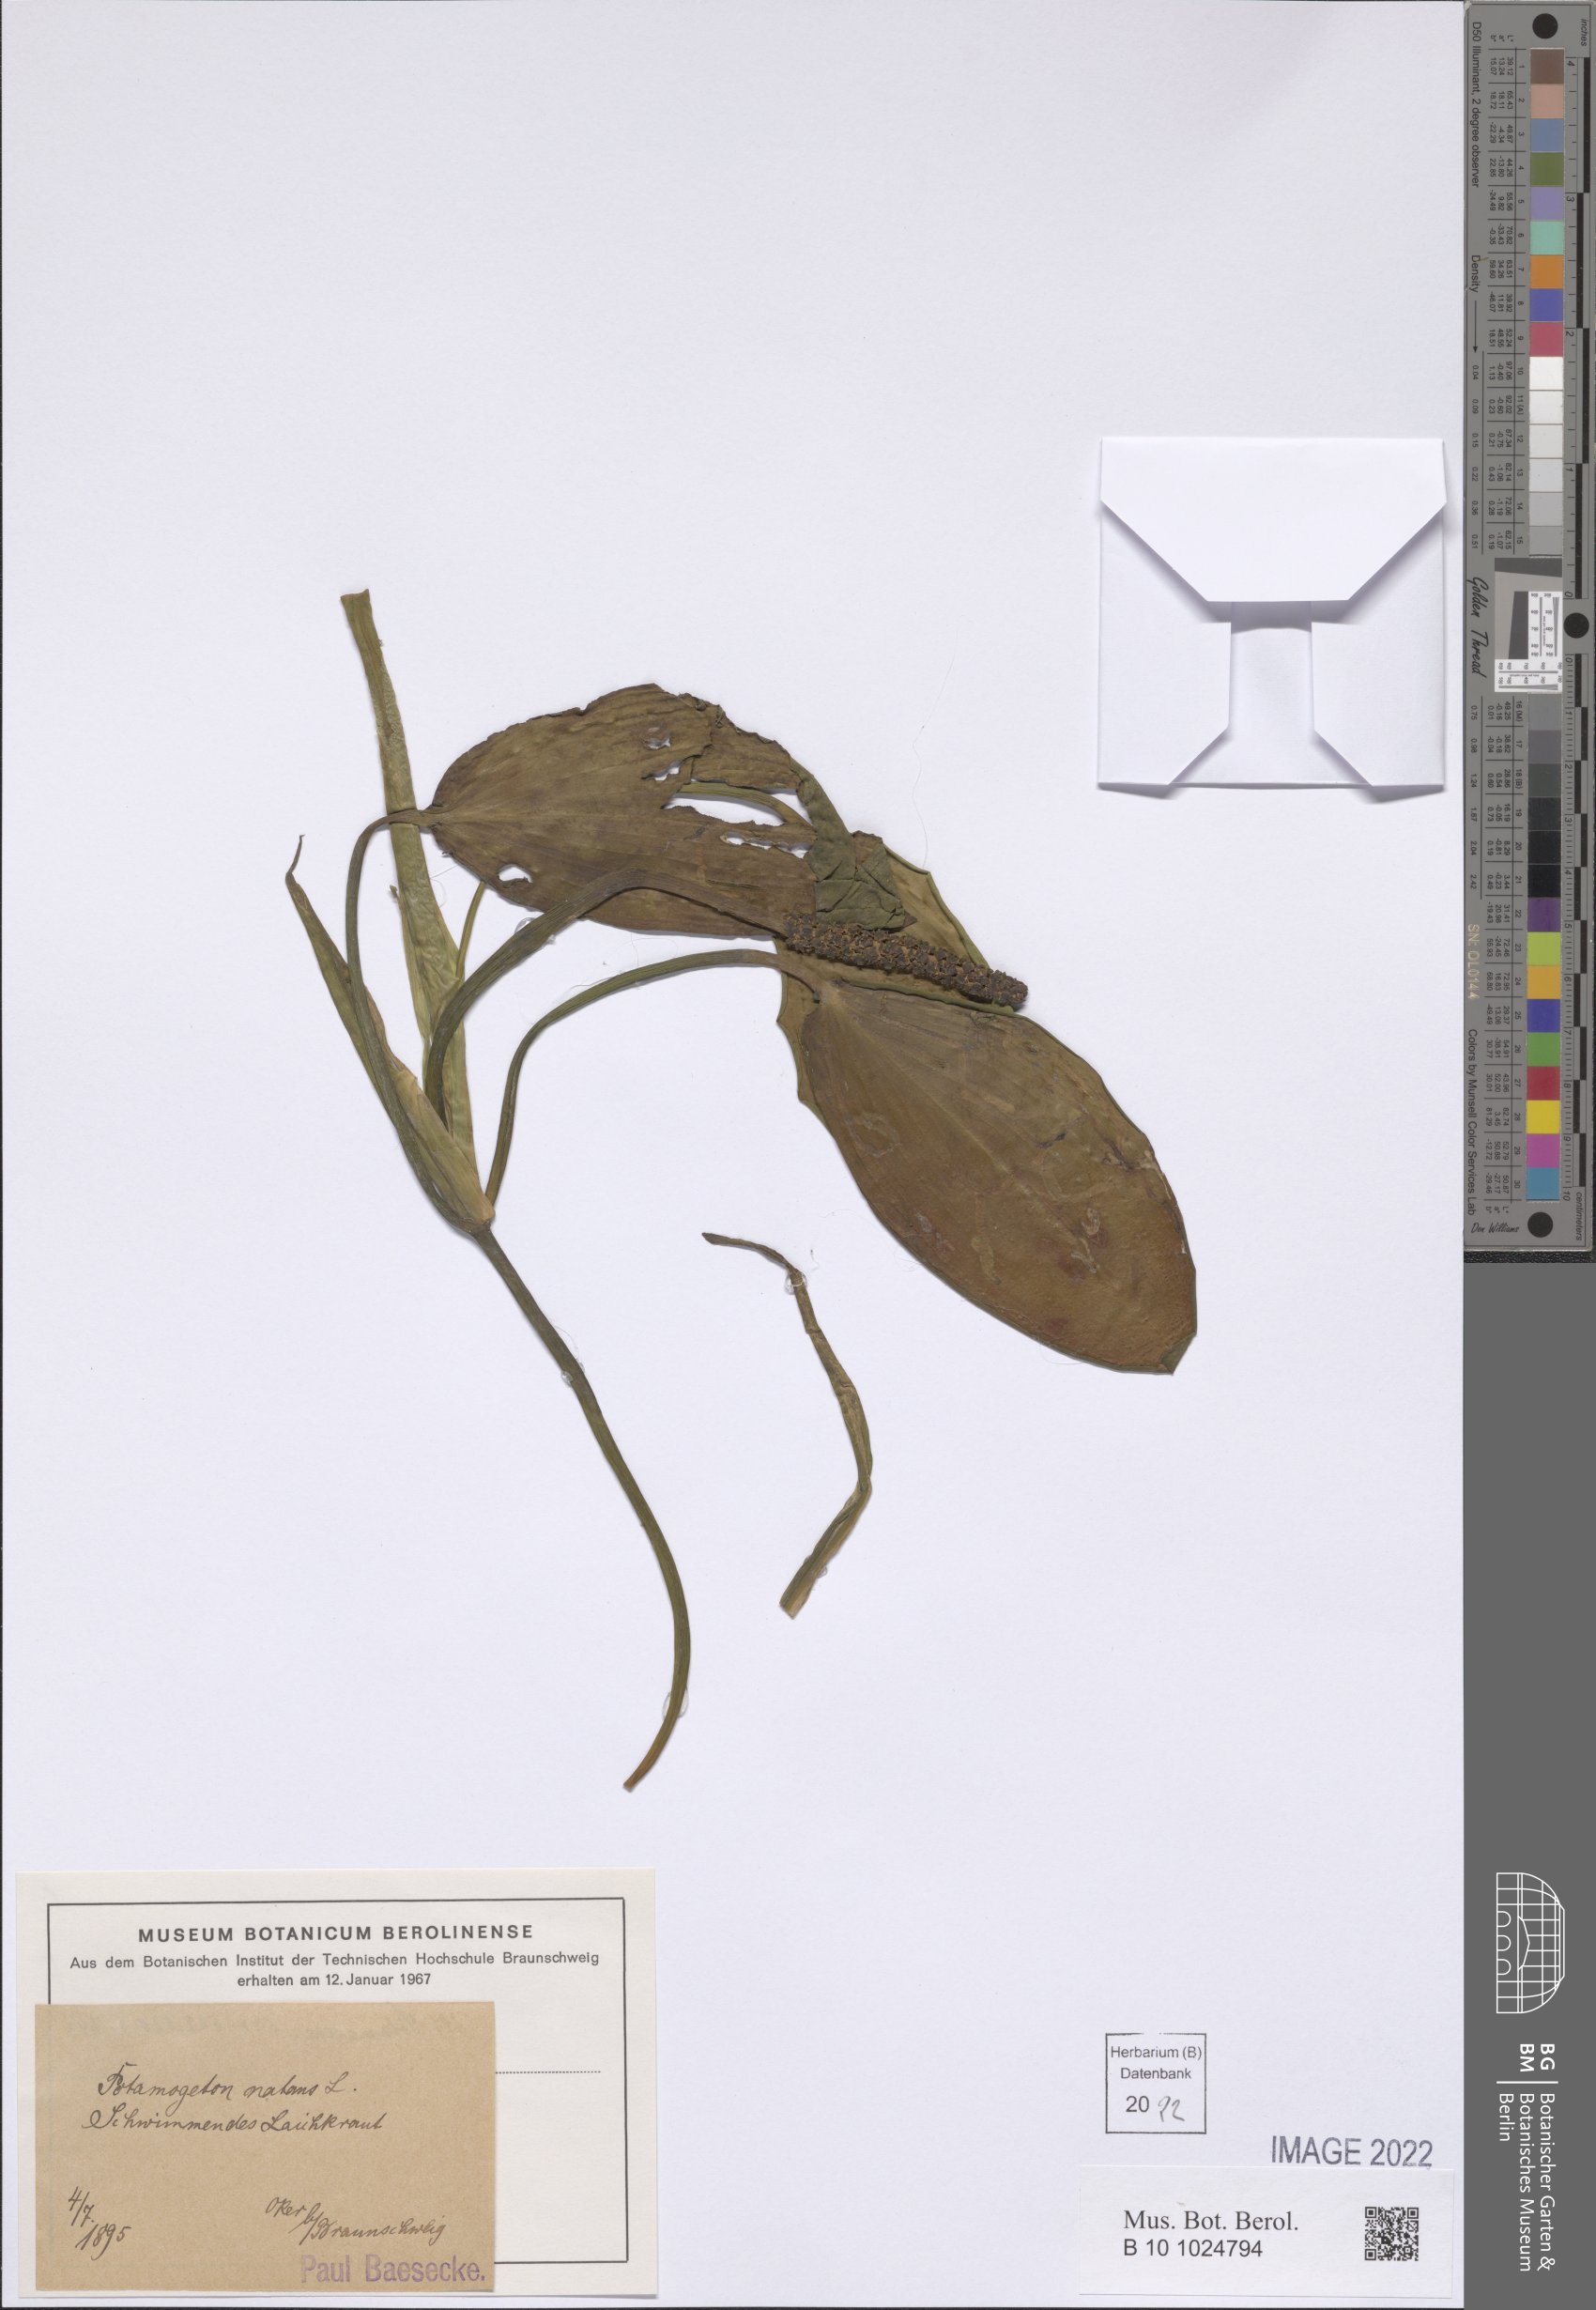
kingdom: Plantae
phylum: Tracheophyta
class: Liliopsida
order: Alismatales
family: Potamogetonaceae
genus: Potamogeton
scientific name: Potamogeton natans
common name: Broad-leaved pondweed
